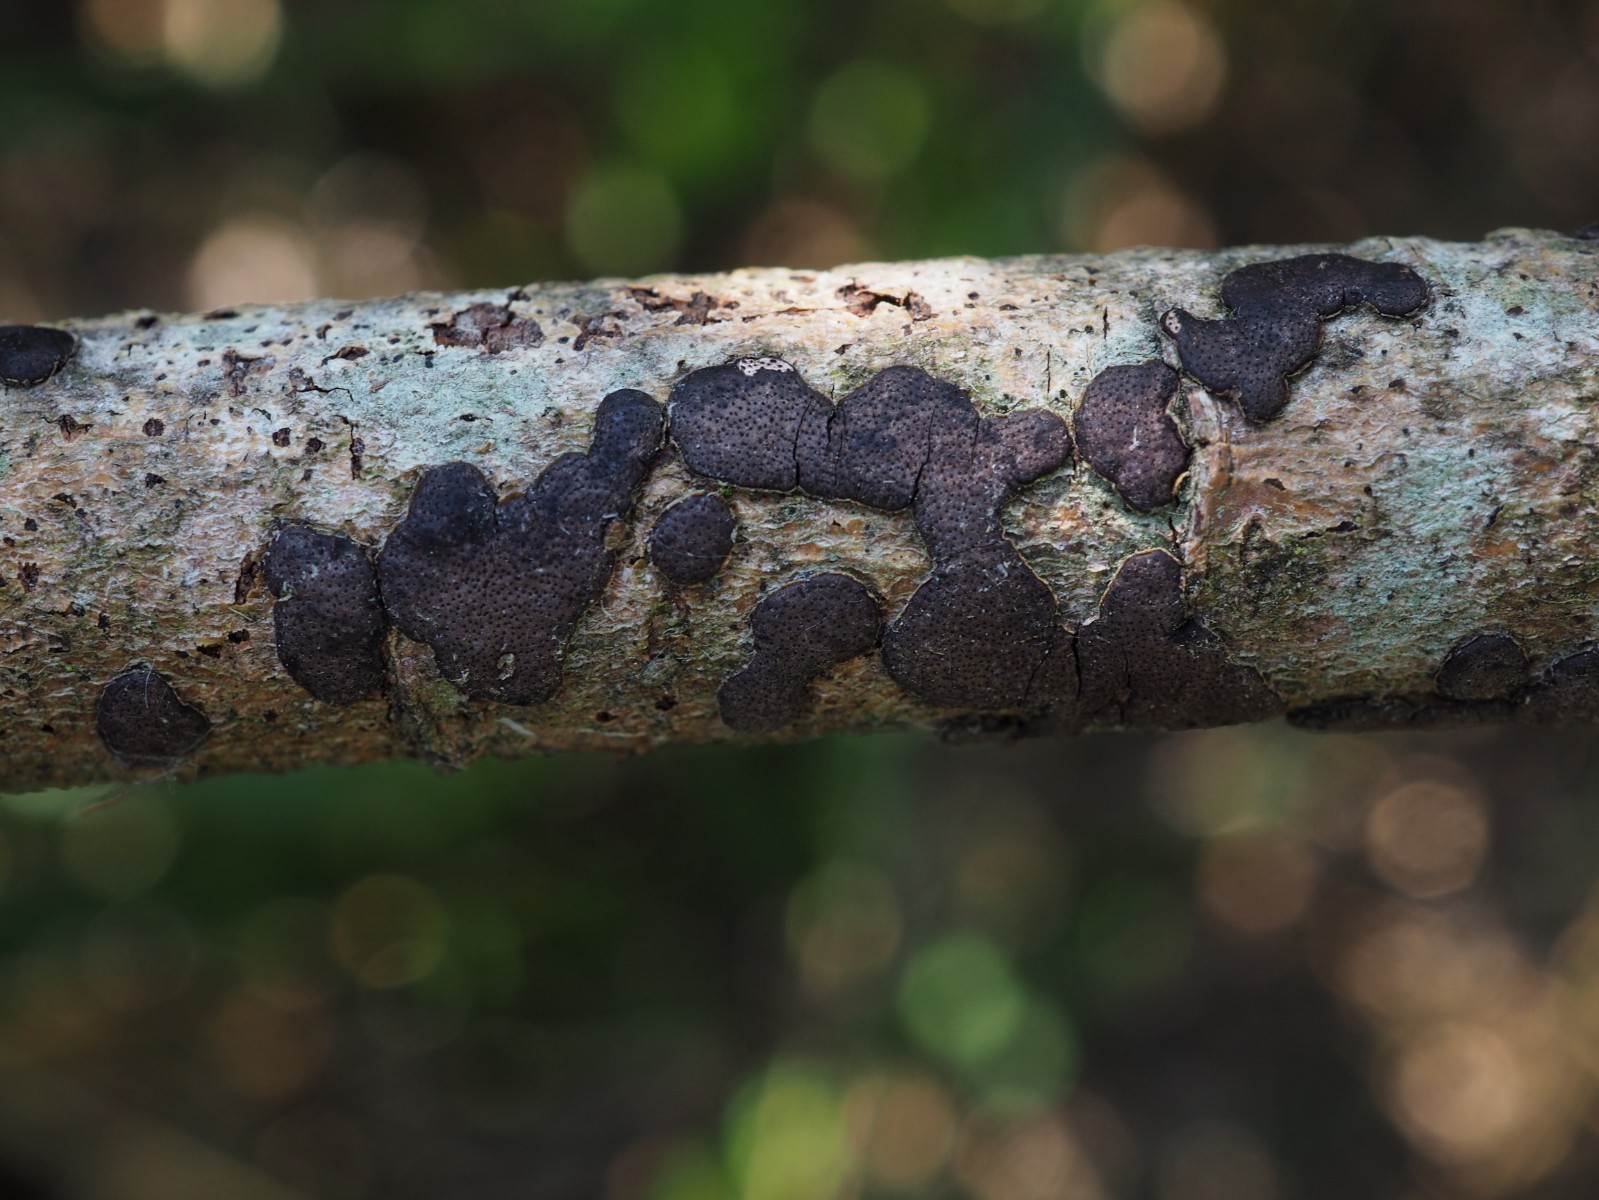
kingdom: Fungi
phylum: Ascomycota
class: Sordariomycetes
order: Xylariales
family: Diatrypaceae
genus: Diatrype
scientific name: Diatrype bullata
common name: pile-kulskorpe
